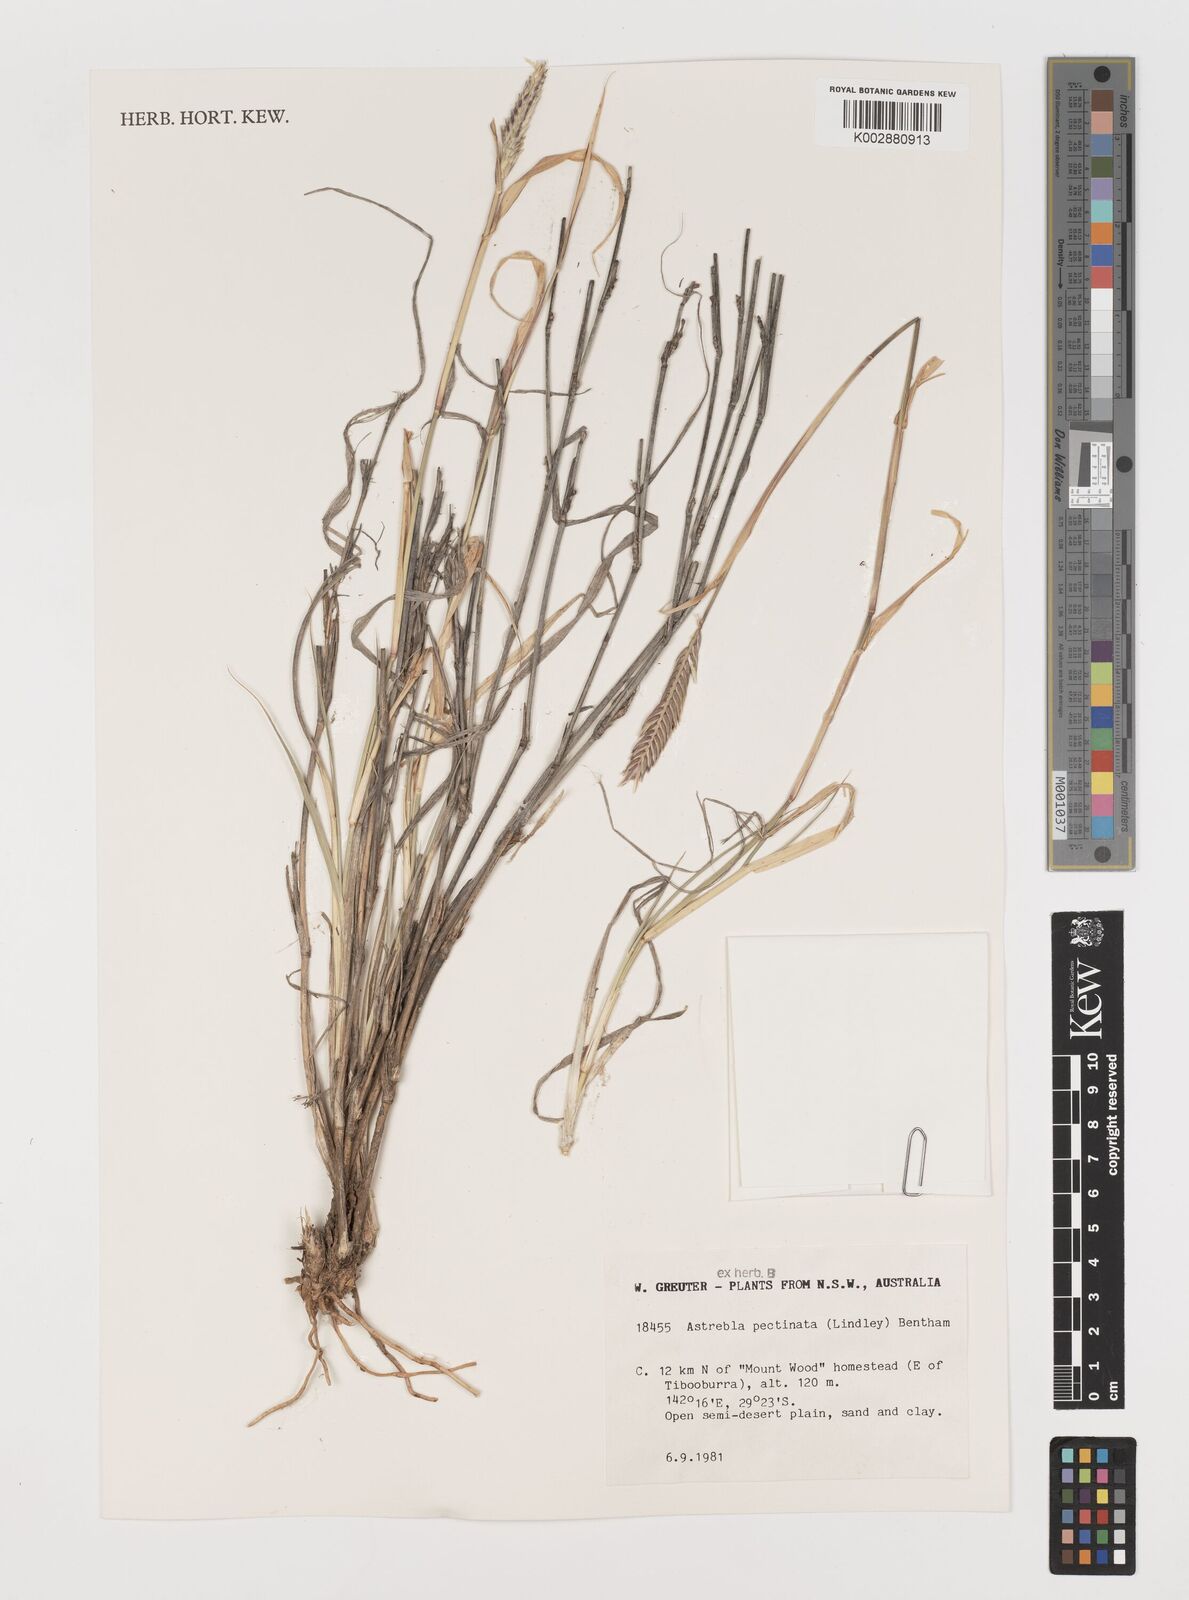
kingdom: Plantae
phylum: Tracheophyta
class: Liliopsida
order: Poales
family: Poaceae
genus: Astrebla
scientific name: Astrebla pectinata
